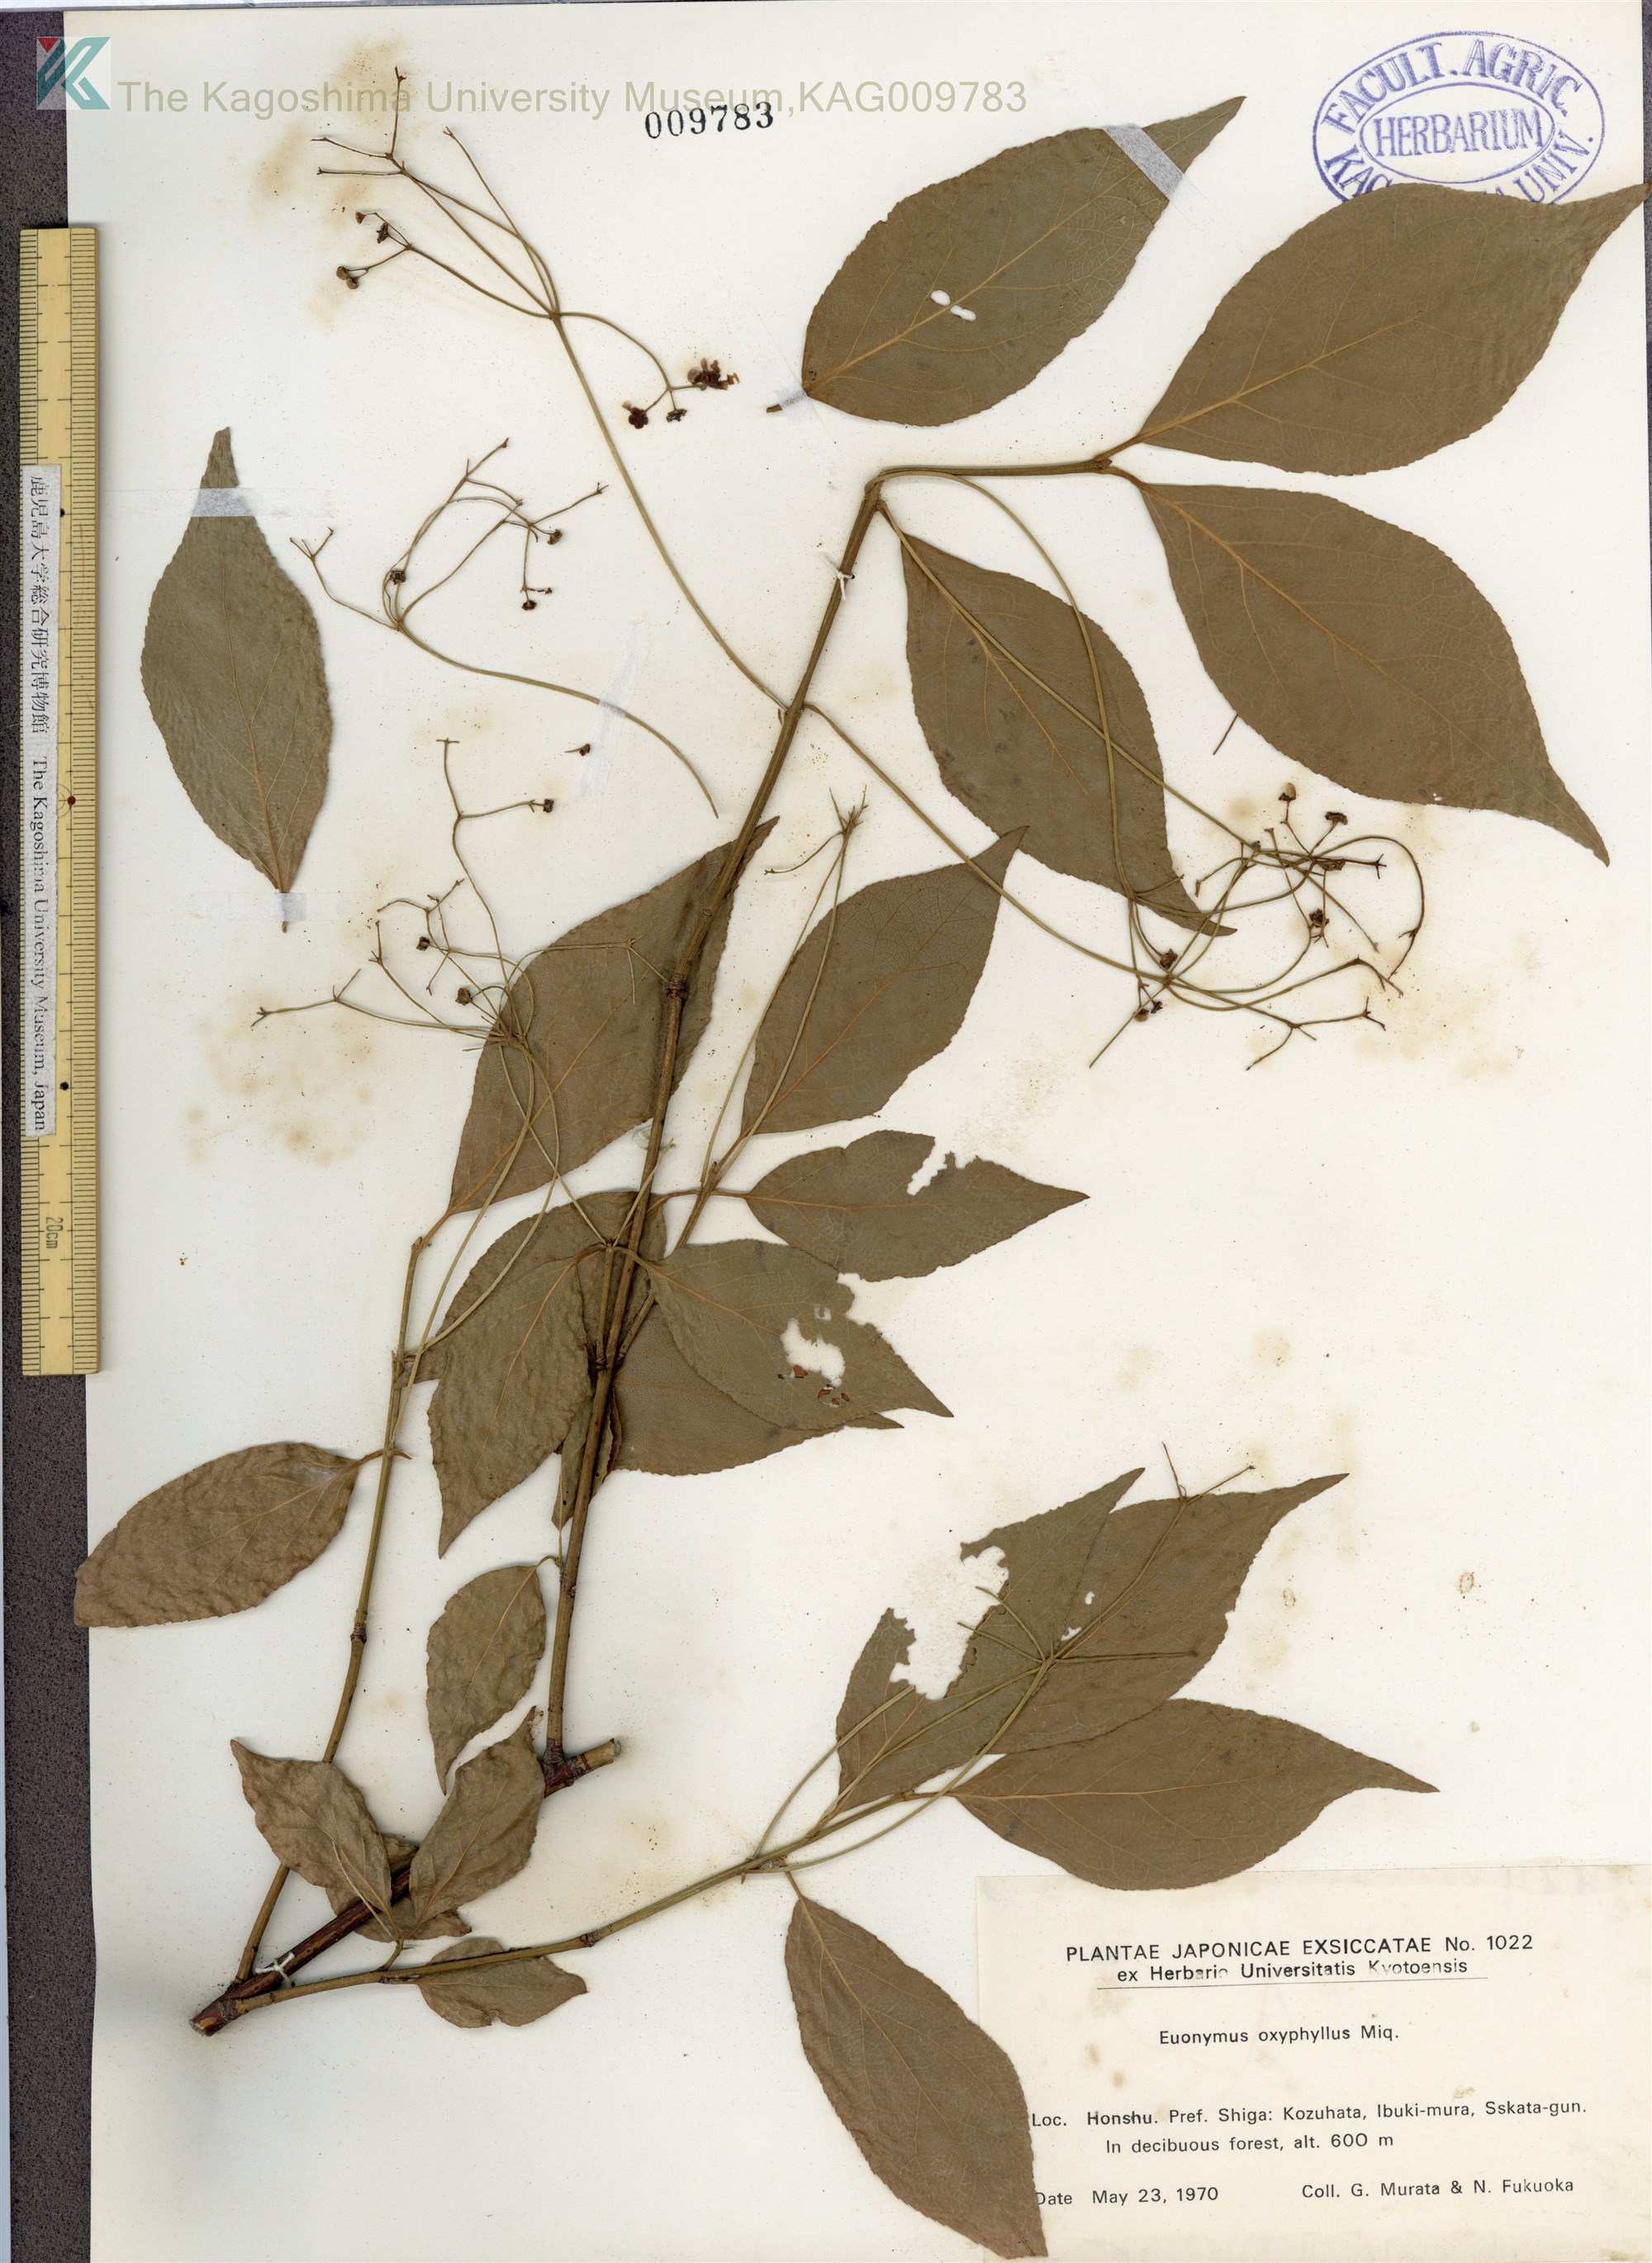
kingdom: Plantae
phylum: Tracheophyta
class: Magnoliopsida
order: Celastrales
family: Celastraceae
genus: Euonymus
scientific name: Euonymus oxyphyllus
